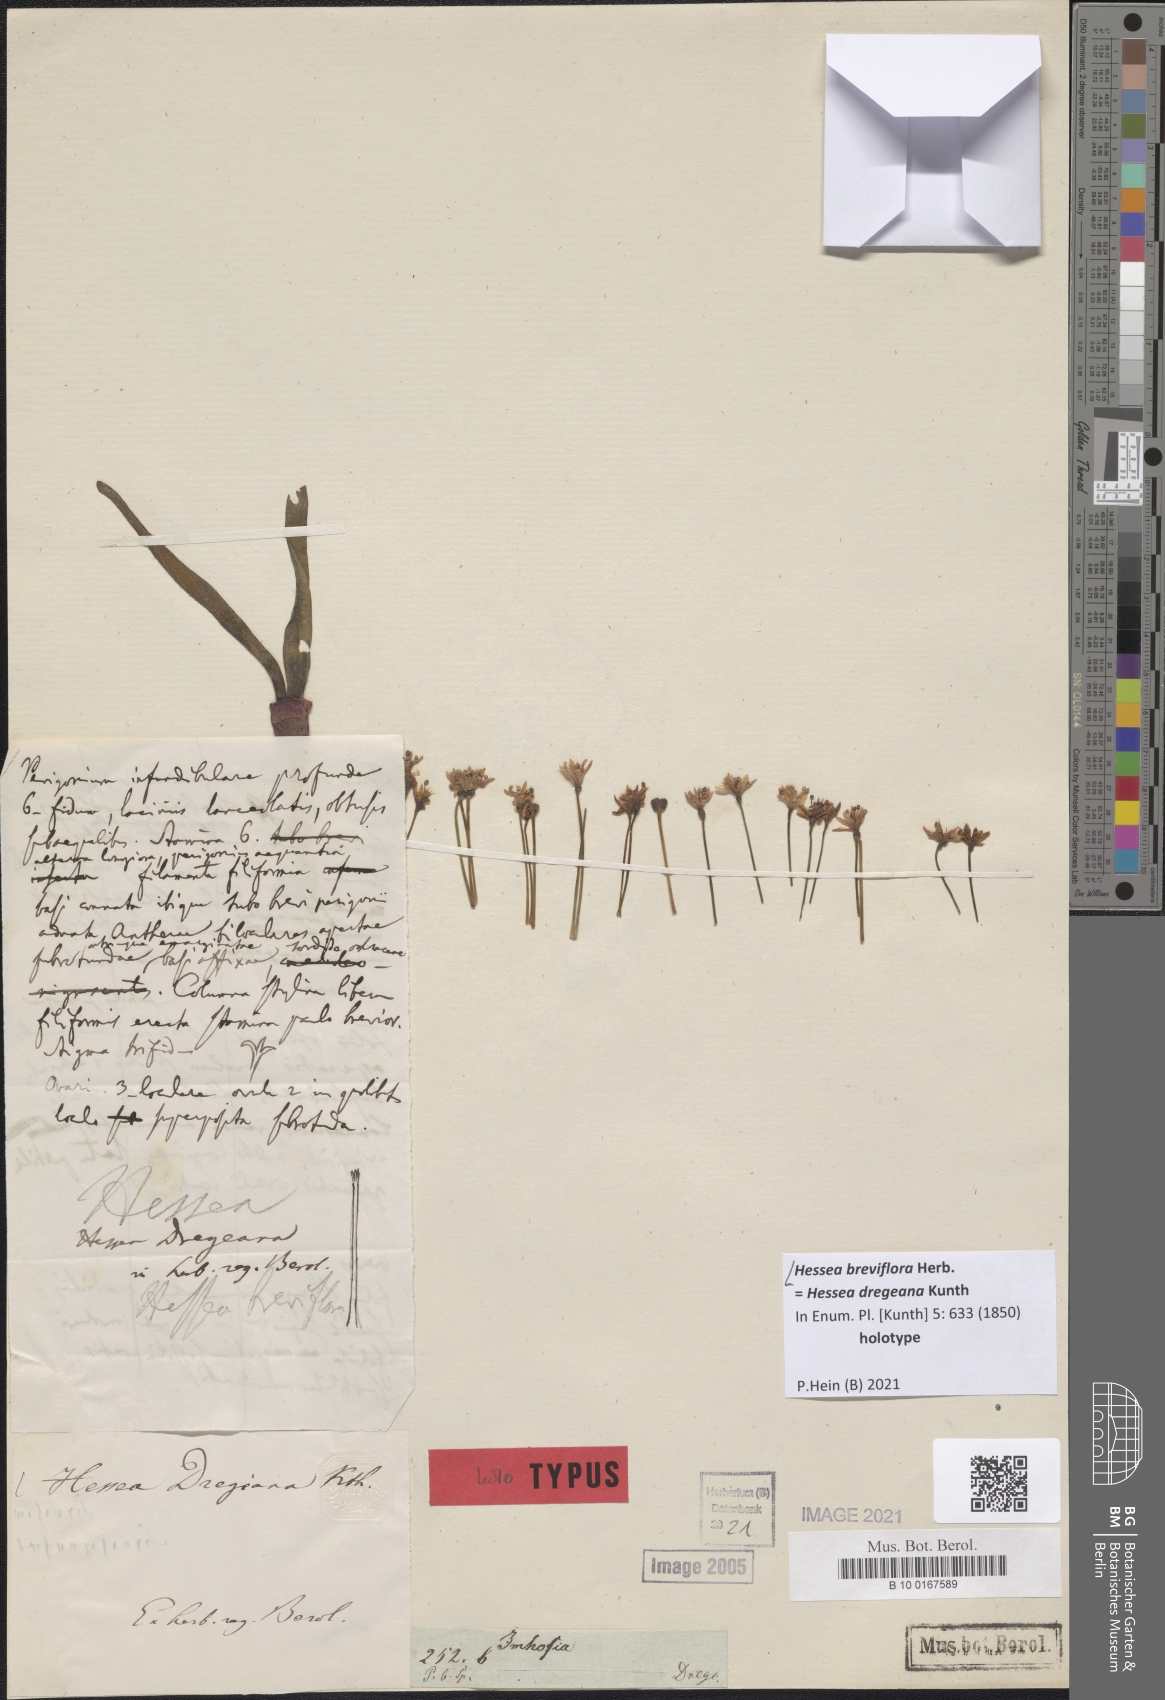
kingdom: Plantae
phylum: Tracheophyta
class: Liliopsida
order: Asparagales
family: Amaryllidaceae
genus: Hessea
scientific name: Hessea breviflora
